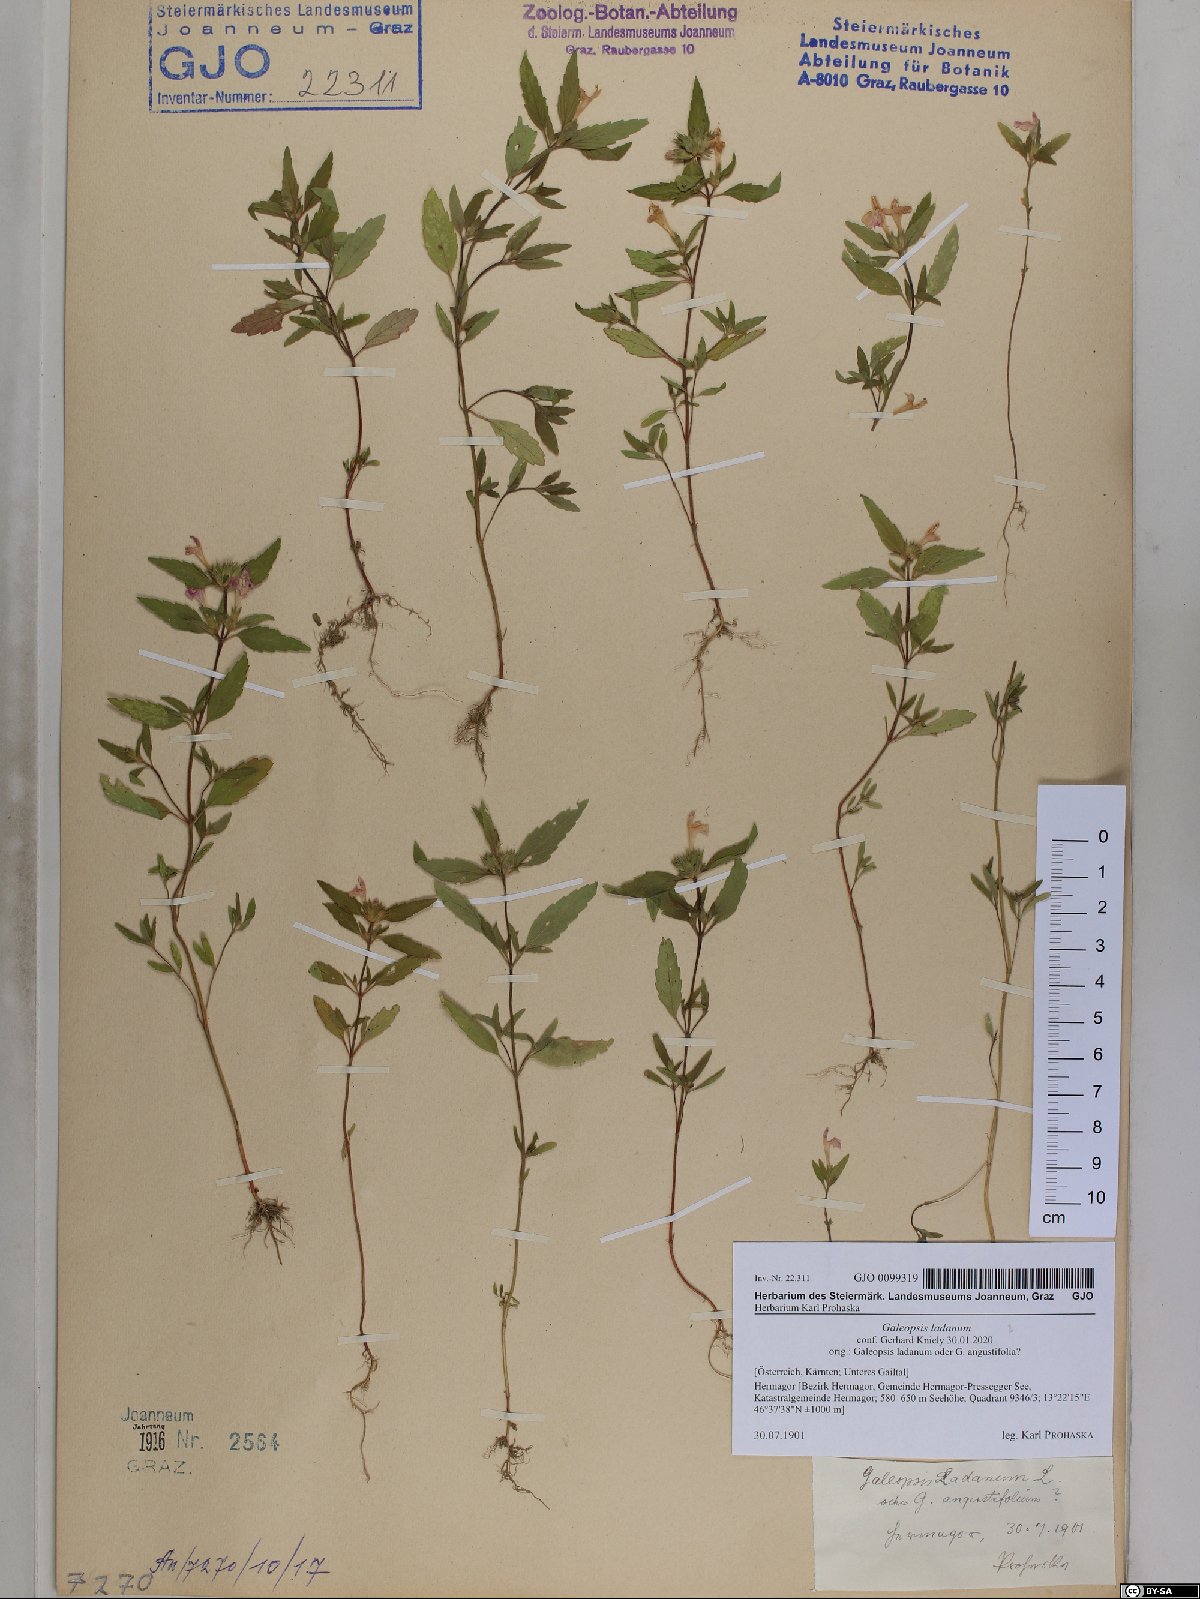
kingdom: Plantae
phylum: Tracheophyta
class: Magnoliopsida
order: Lamiales
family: Lamiaceae
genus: Galeopsis
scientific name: Galeopsis ladanum
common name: Broad-leaved hemp-nettle
